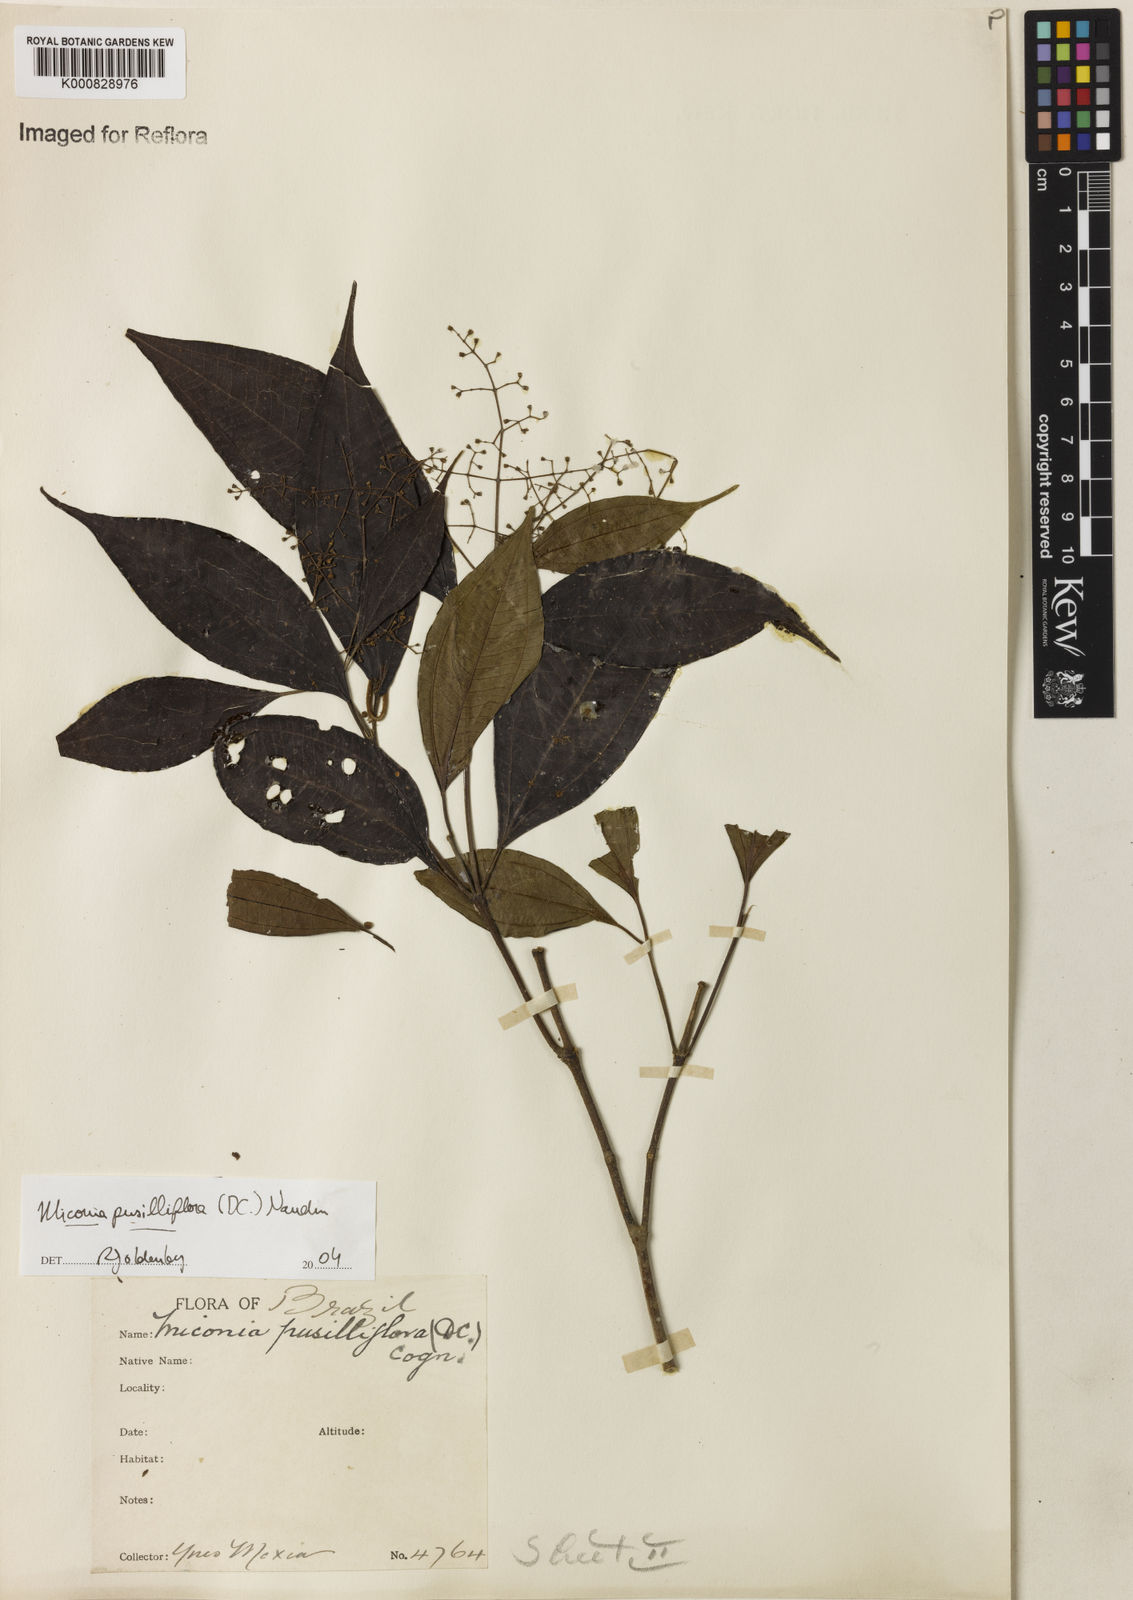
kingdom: Plantae
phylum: Tracheophyta
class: Magnoliopsida
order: Myrtales
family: Melastomataceae
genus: Miconia
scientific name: Miconia pusilliflora
